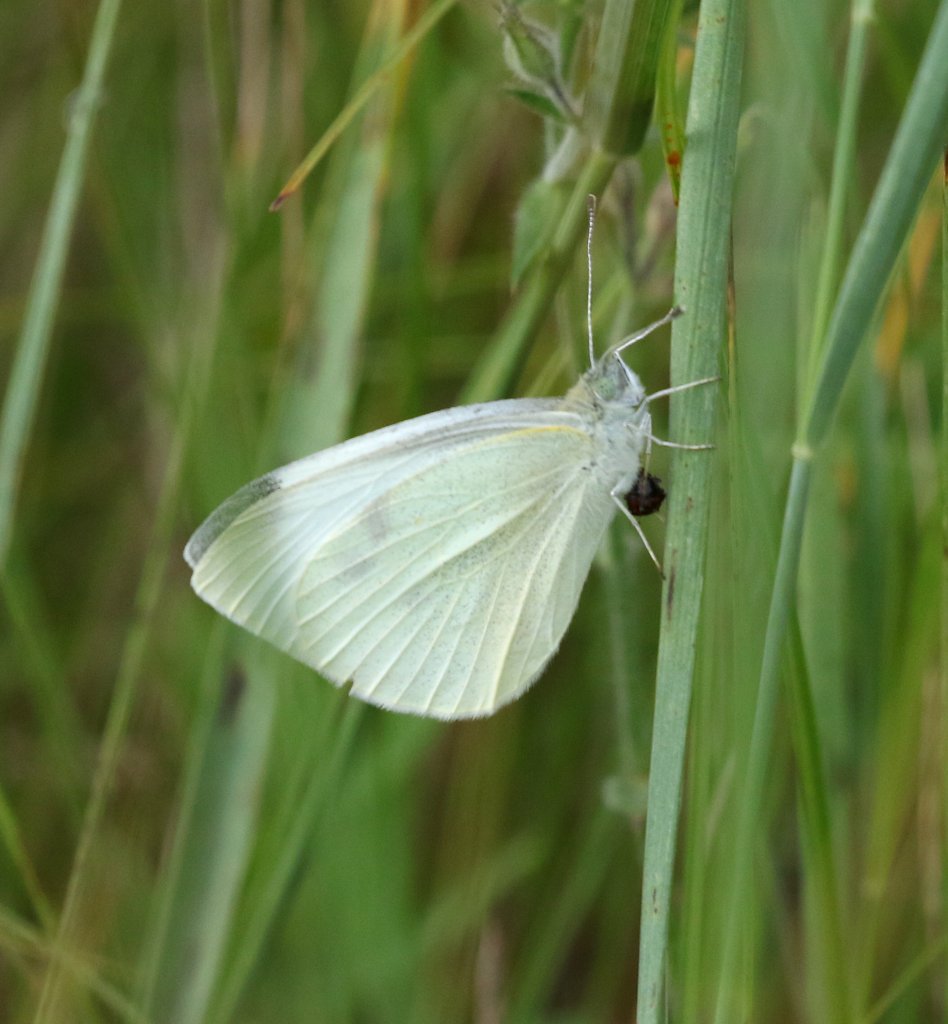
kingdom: Animalia
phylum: Arthropoda
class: Insecta
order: Lepidoptera
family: Pieridae
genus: Pieris
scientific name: Pieris rapae
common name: Cabbage White
